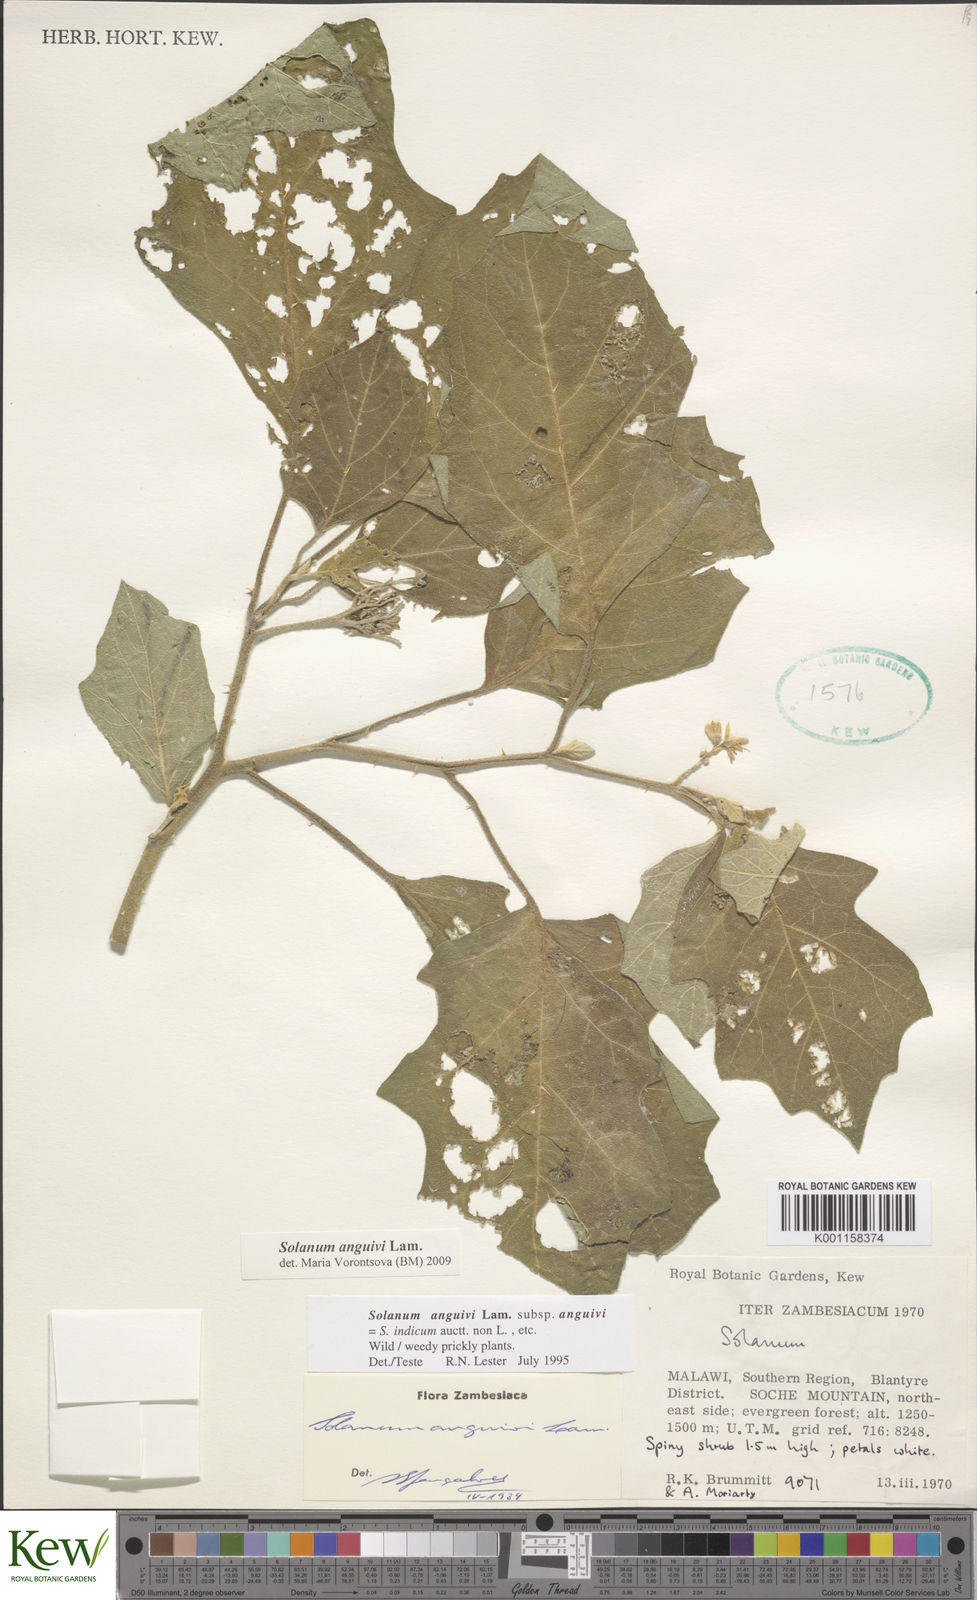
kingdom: Plantae
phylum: Tracheophyta
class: Magnoliopsida
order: Solanales
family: Solanaceae
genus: Solanum
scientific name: Solanum anguivi
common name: Forest bitterberry
